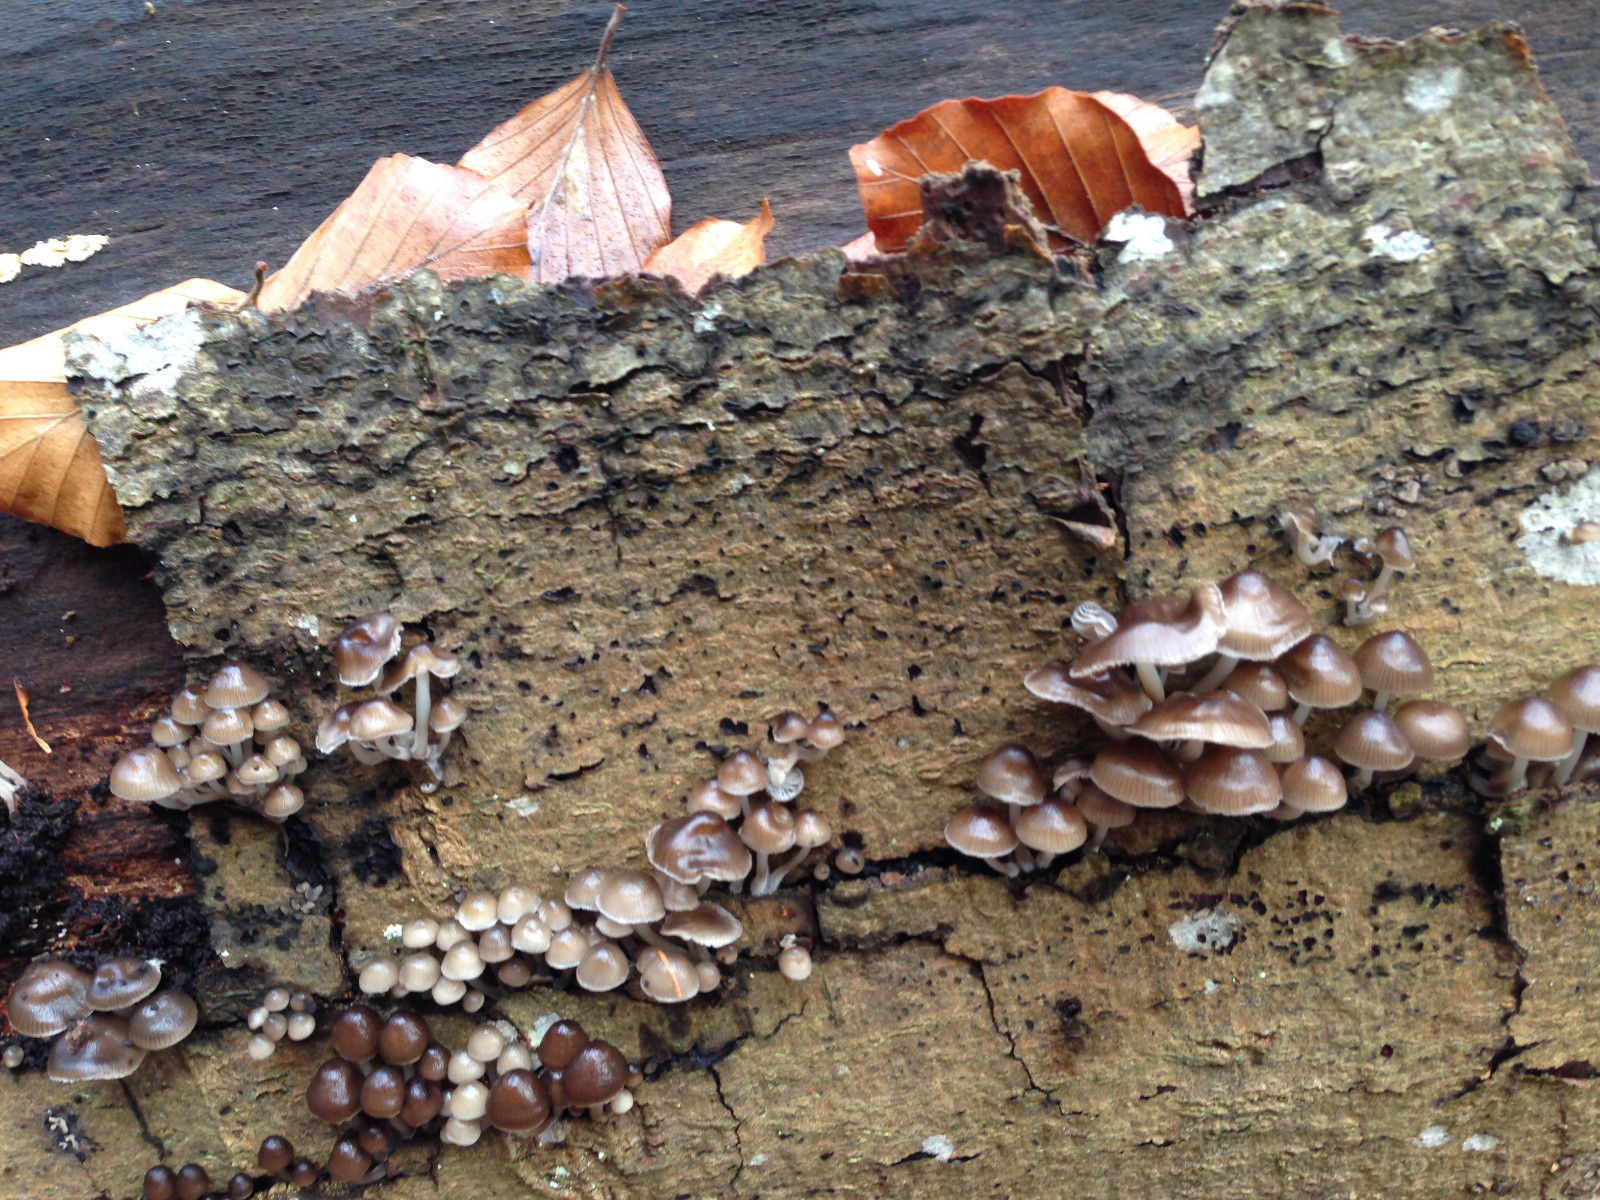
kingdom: Fungi
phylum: Basidiomycota
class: Agaricomycetes
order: Agaricales
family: Mycenaceae
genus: Mycena
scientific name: Mycena tintinnabulum
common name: vinter-huesvamp
